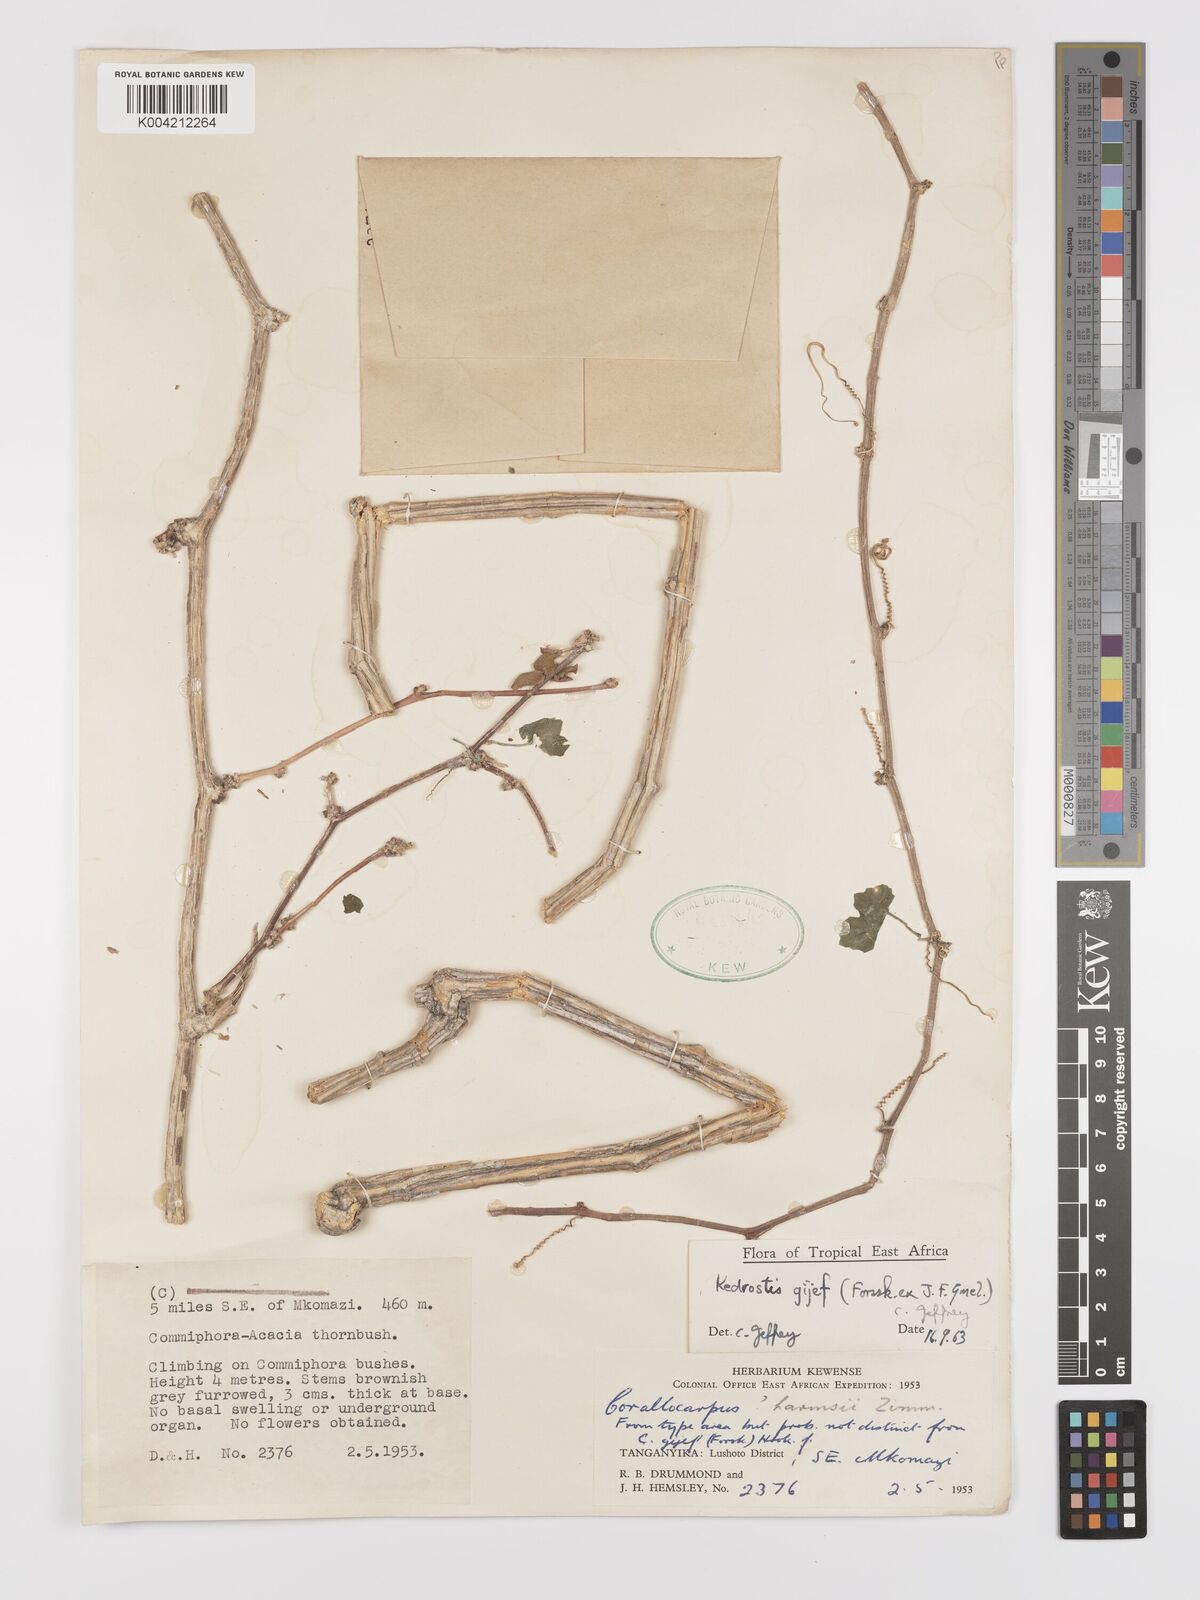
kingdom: Plantae
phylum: Tracheophyta
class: Magnoliopsida
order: Cucurbitales
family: Cucurbitaceae
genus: Kedrostis
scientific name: Kedrostis gijef
